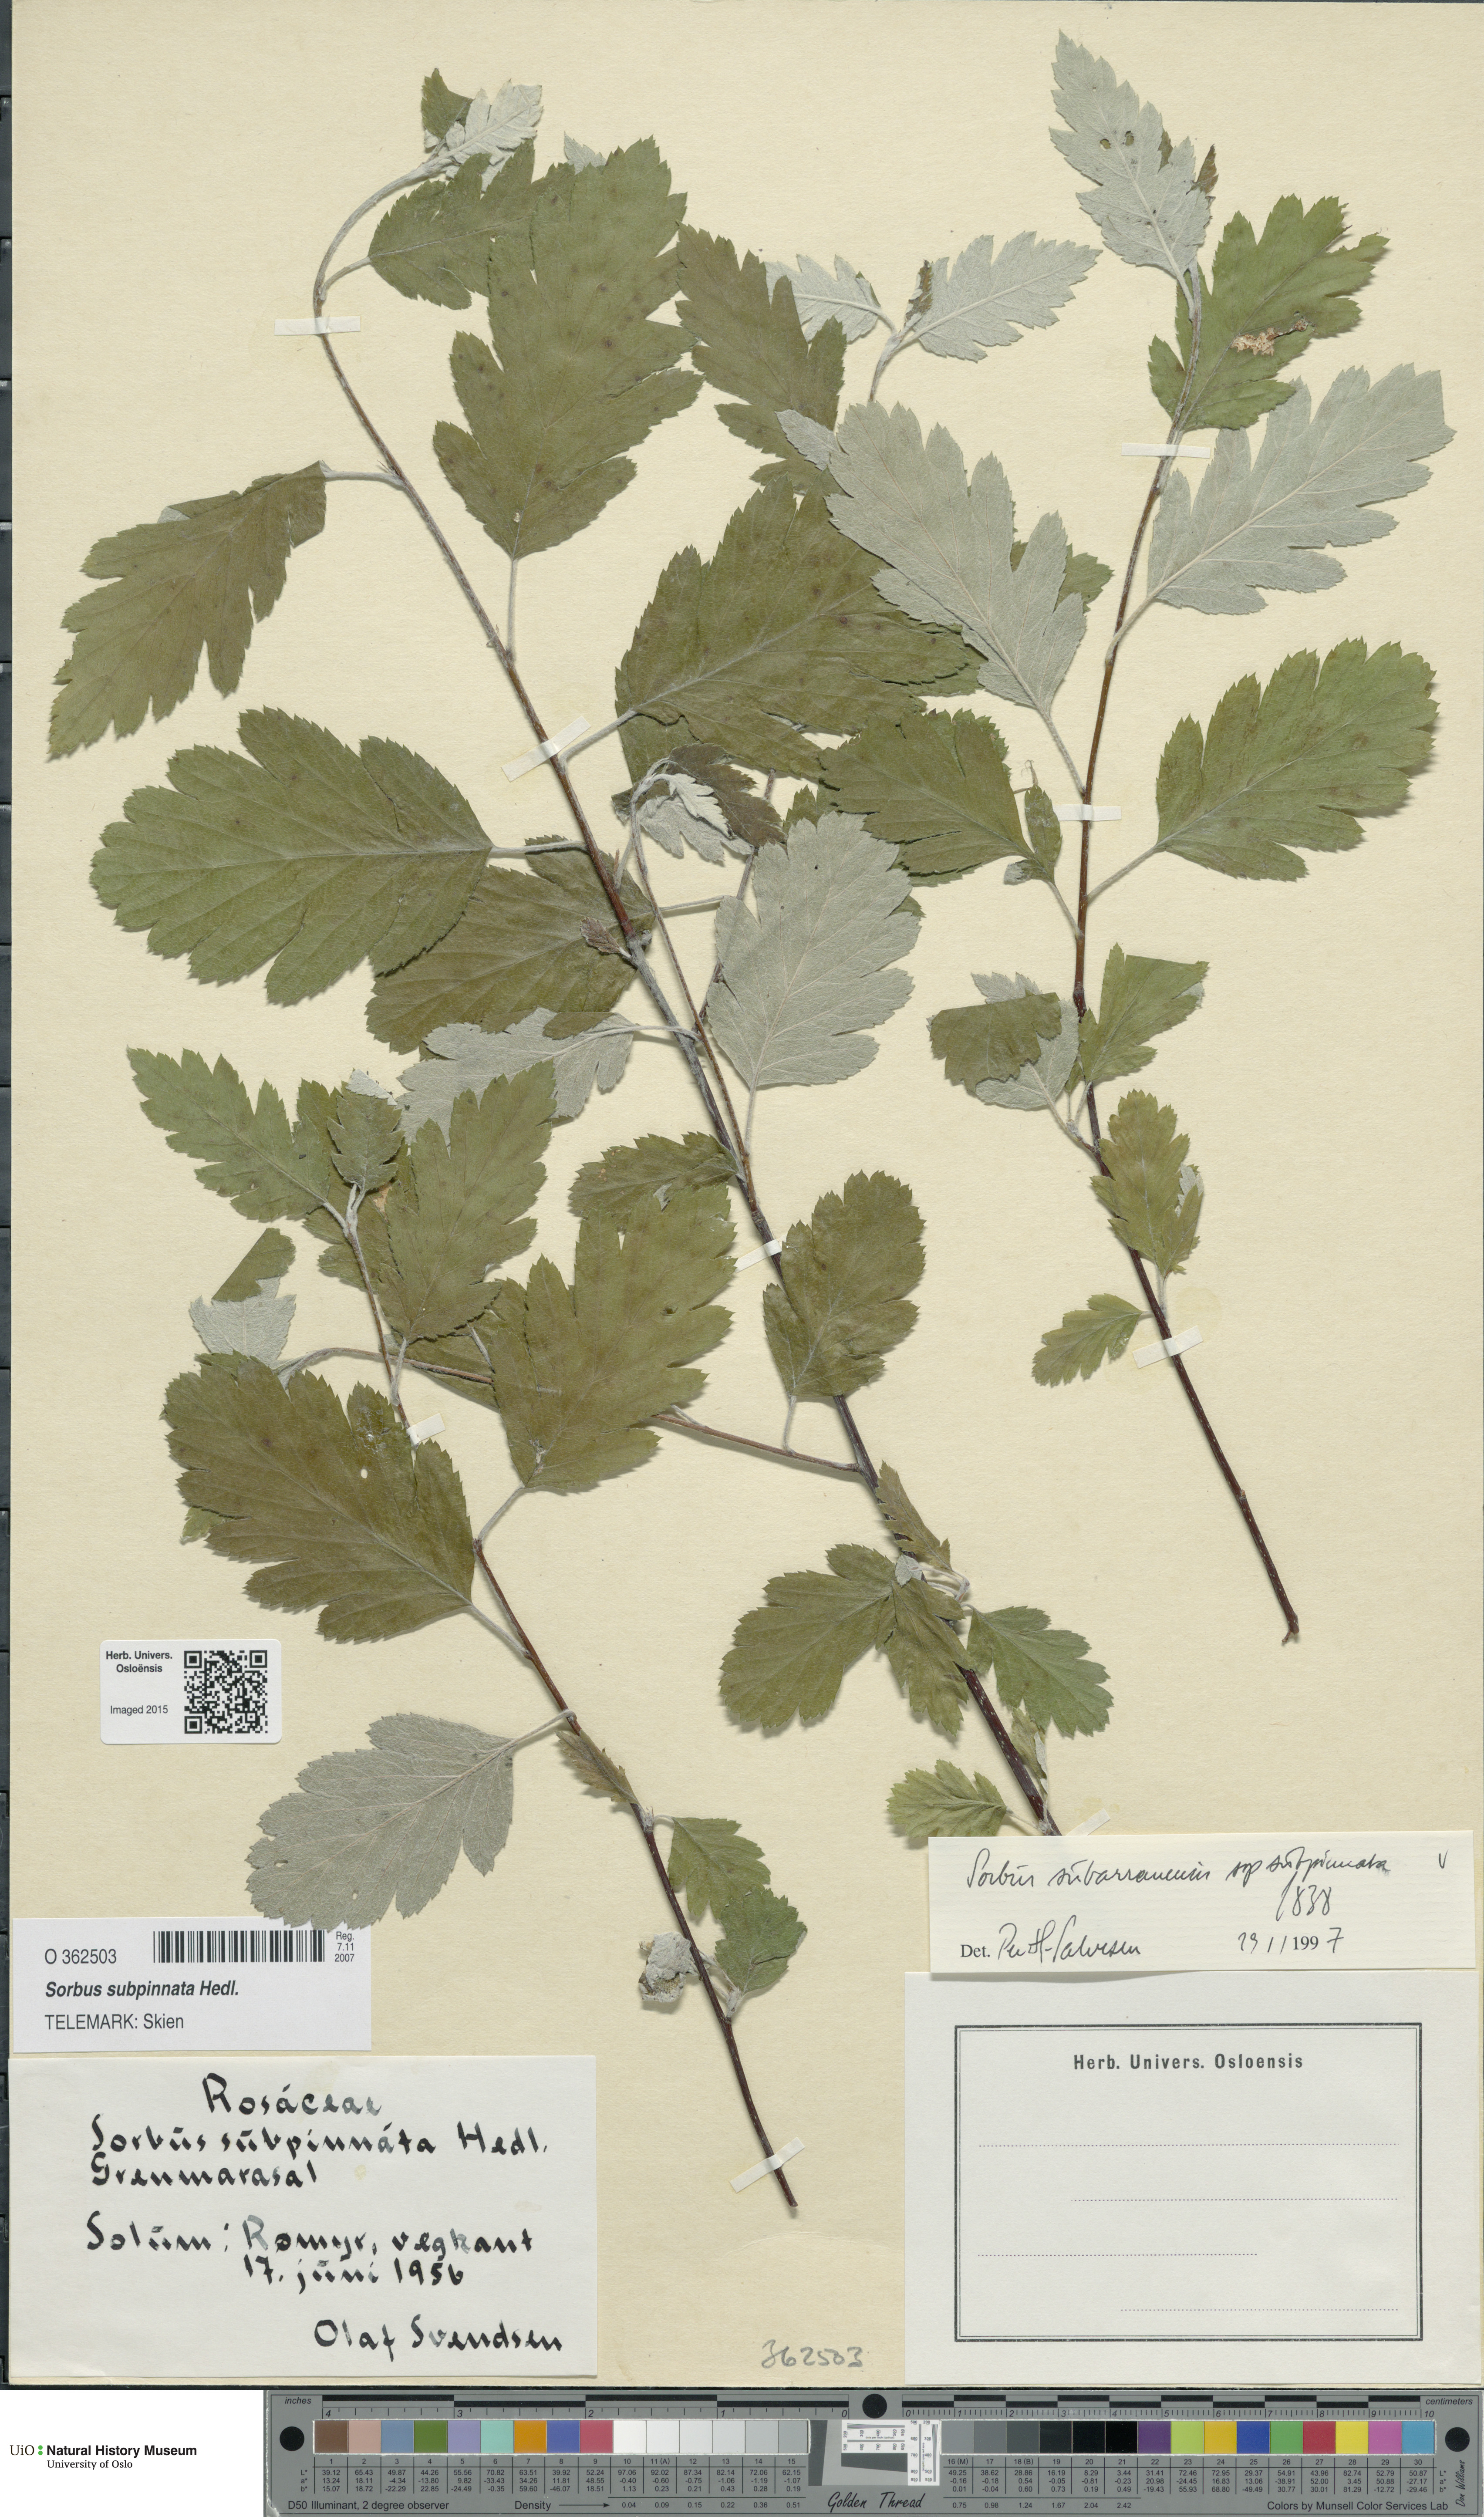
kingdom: Plantae
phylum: Tracheophyta
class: Magnoliopsida
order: Rosales
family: Rosaceae
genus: Hedlundia
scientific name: Hedlundia subpinnata
